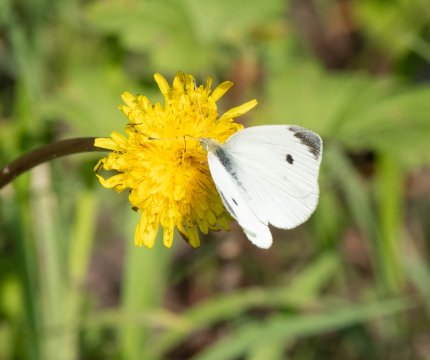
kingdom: Animalia
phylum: Arthropoda
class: Insecta
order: Lepidoptera
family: Pieridae
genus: Pieris
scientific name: Pieris rapae
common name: Cabbage White
